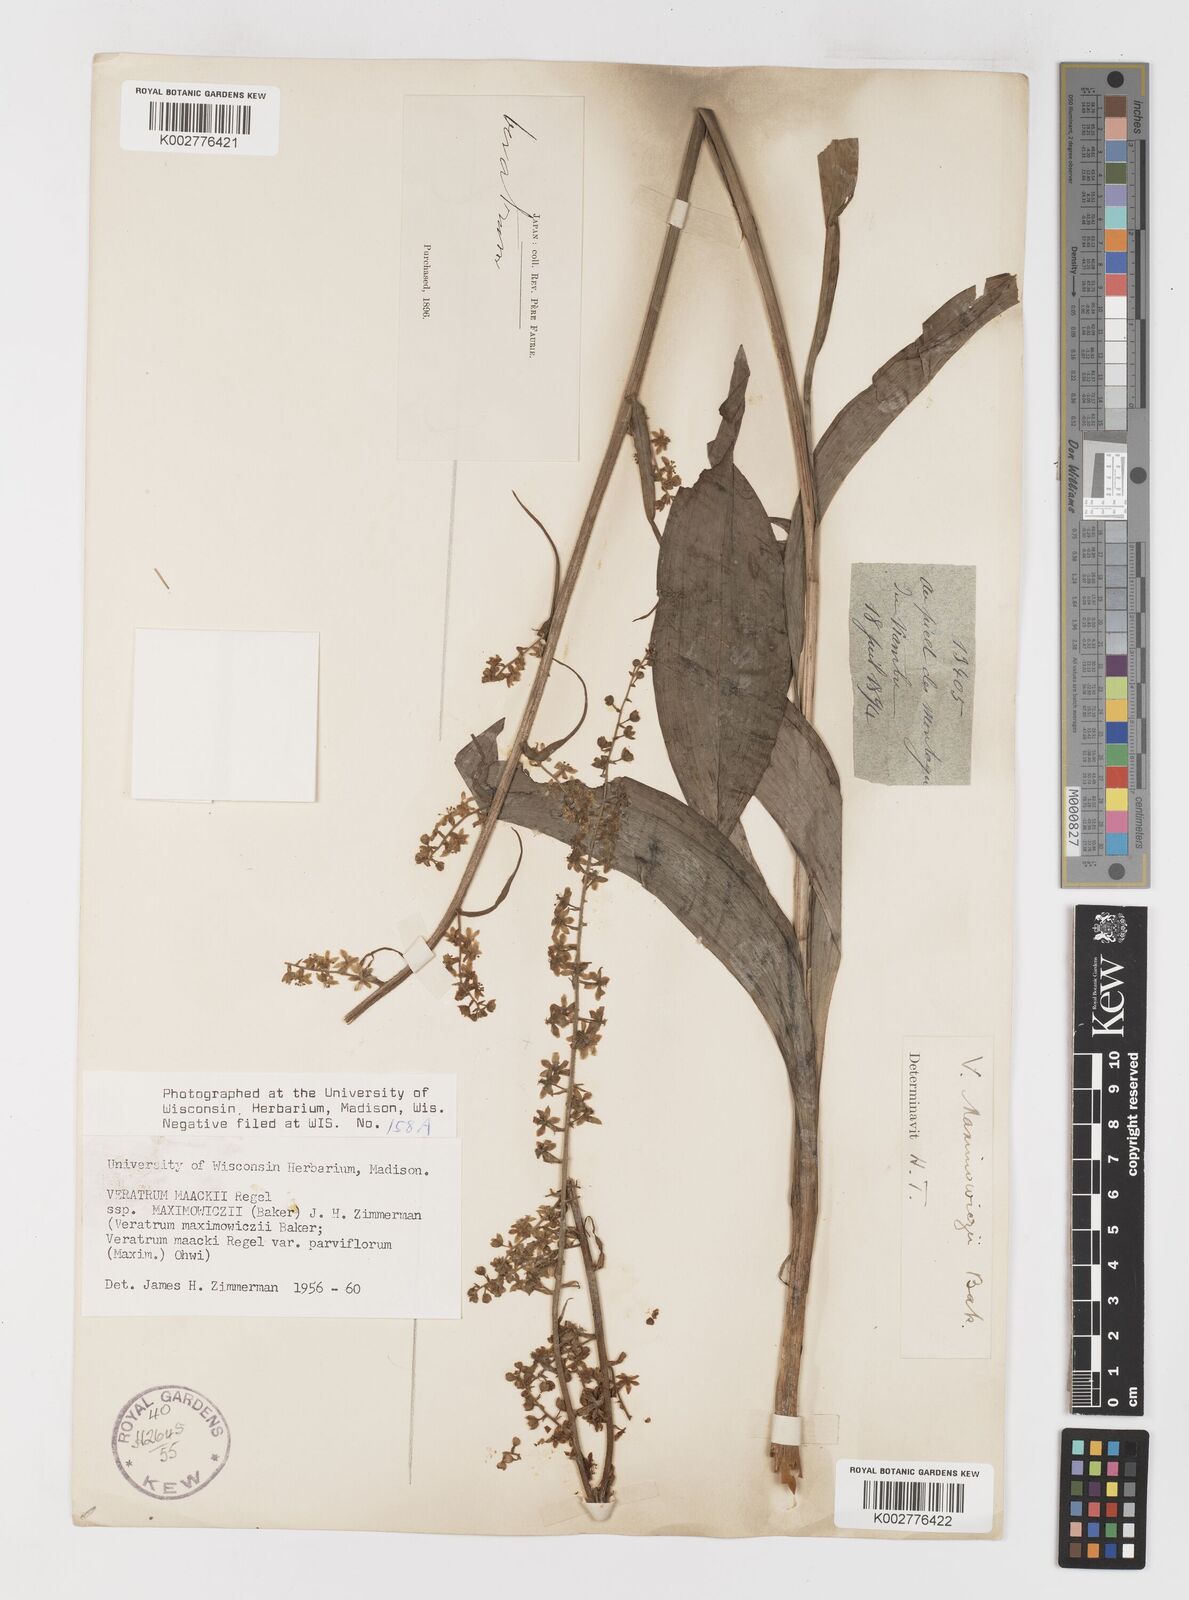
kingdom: Plantae
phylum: Tracheophyta
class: Liliopsida
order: Liliales
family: Melanthiaceae
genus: Veratrum
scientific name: Veratrum maackii
